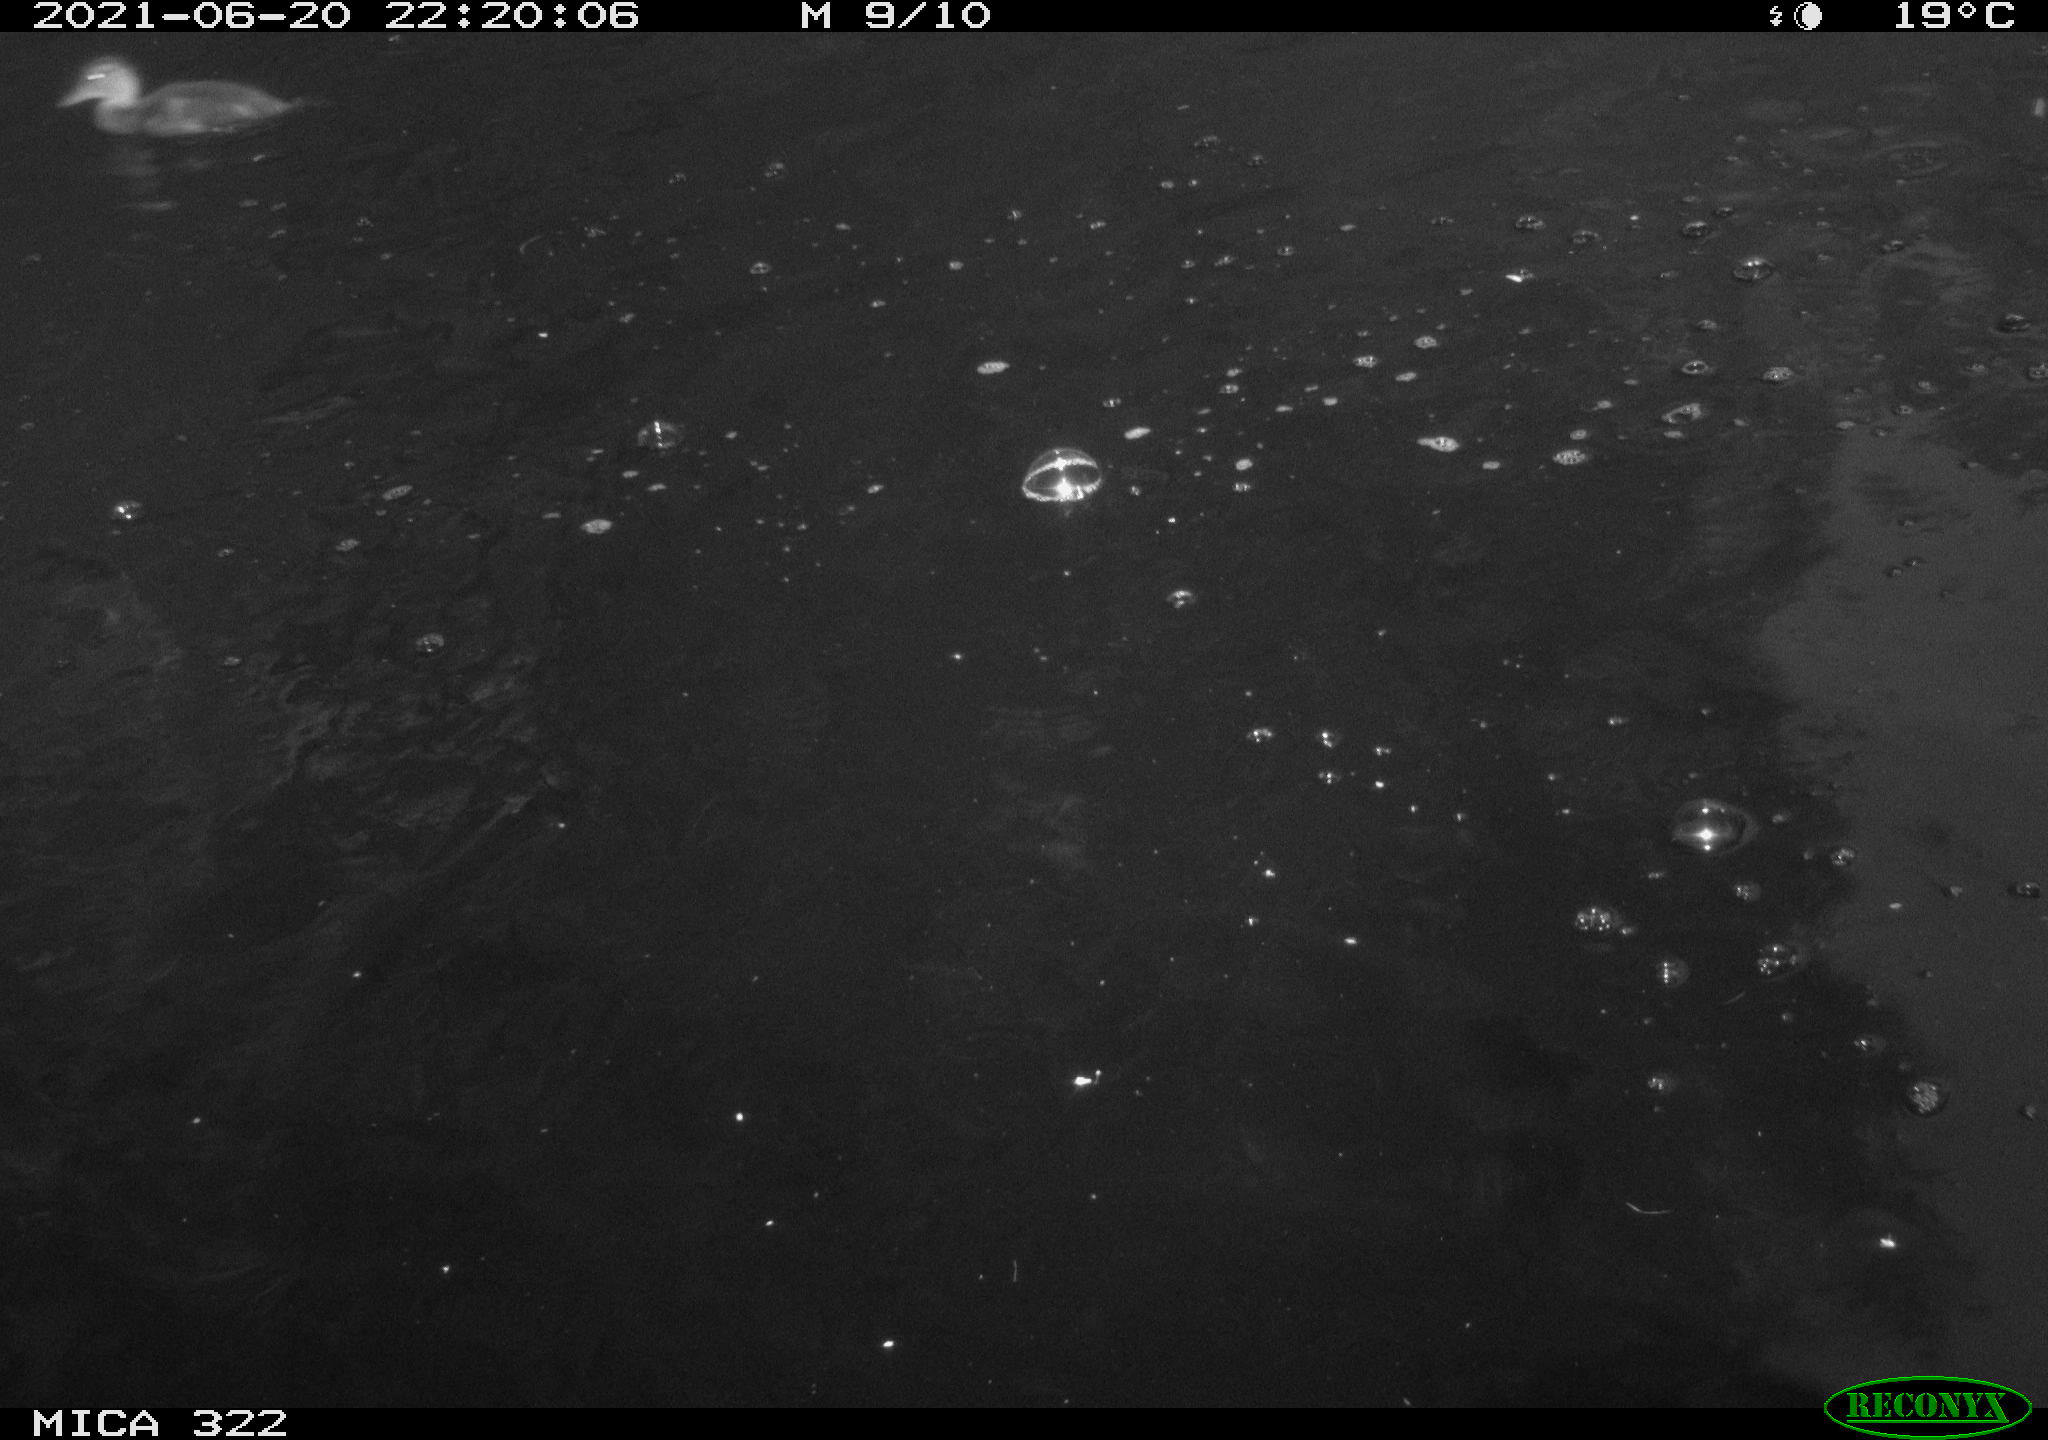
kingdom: Animalia
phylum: Chordata
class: Aves
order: Anseriformes
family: Anatidae
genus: Mareca
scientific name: Mareca strepera
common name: Gadwall
